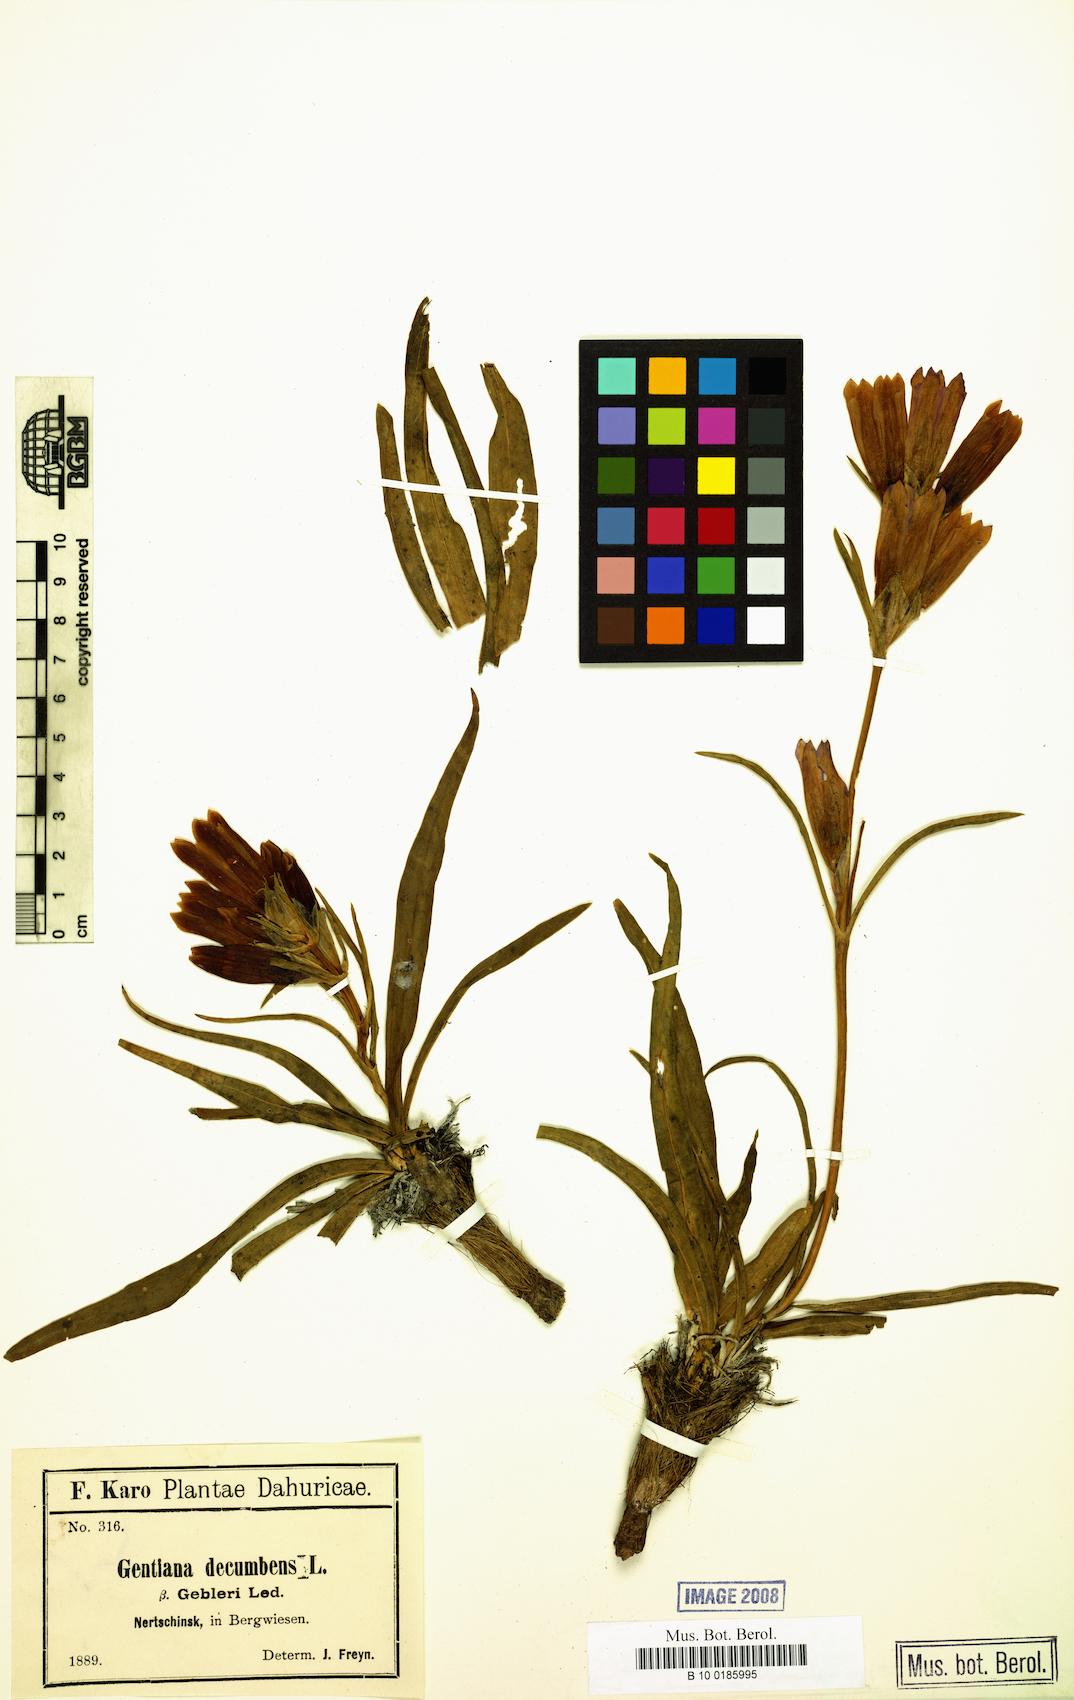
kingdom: Plantae
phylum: Tracheophyta
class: Magnoliopsida
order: Gentianales
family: Gentianaceae
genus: Gentiana
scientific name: Gentiana decumbens
